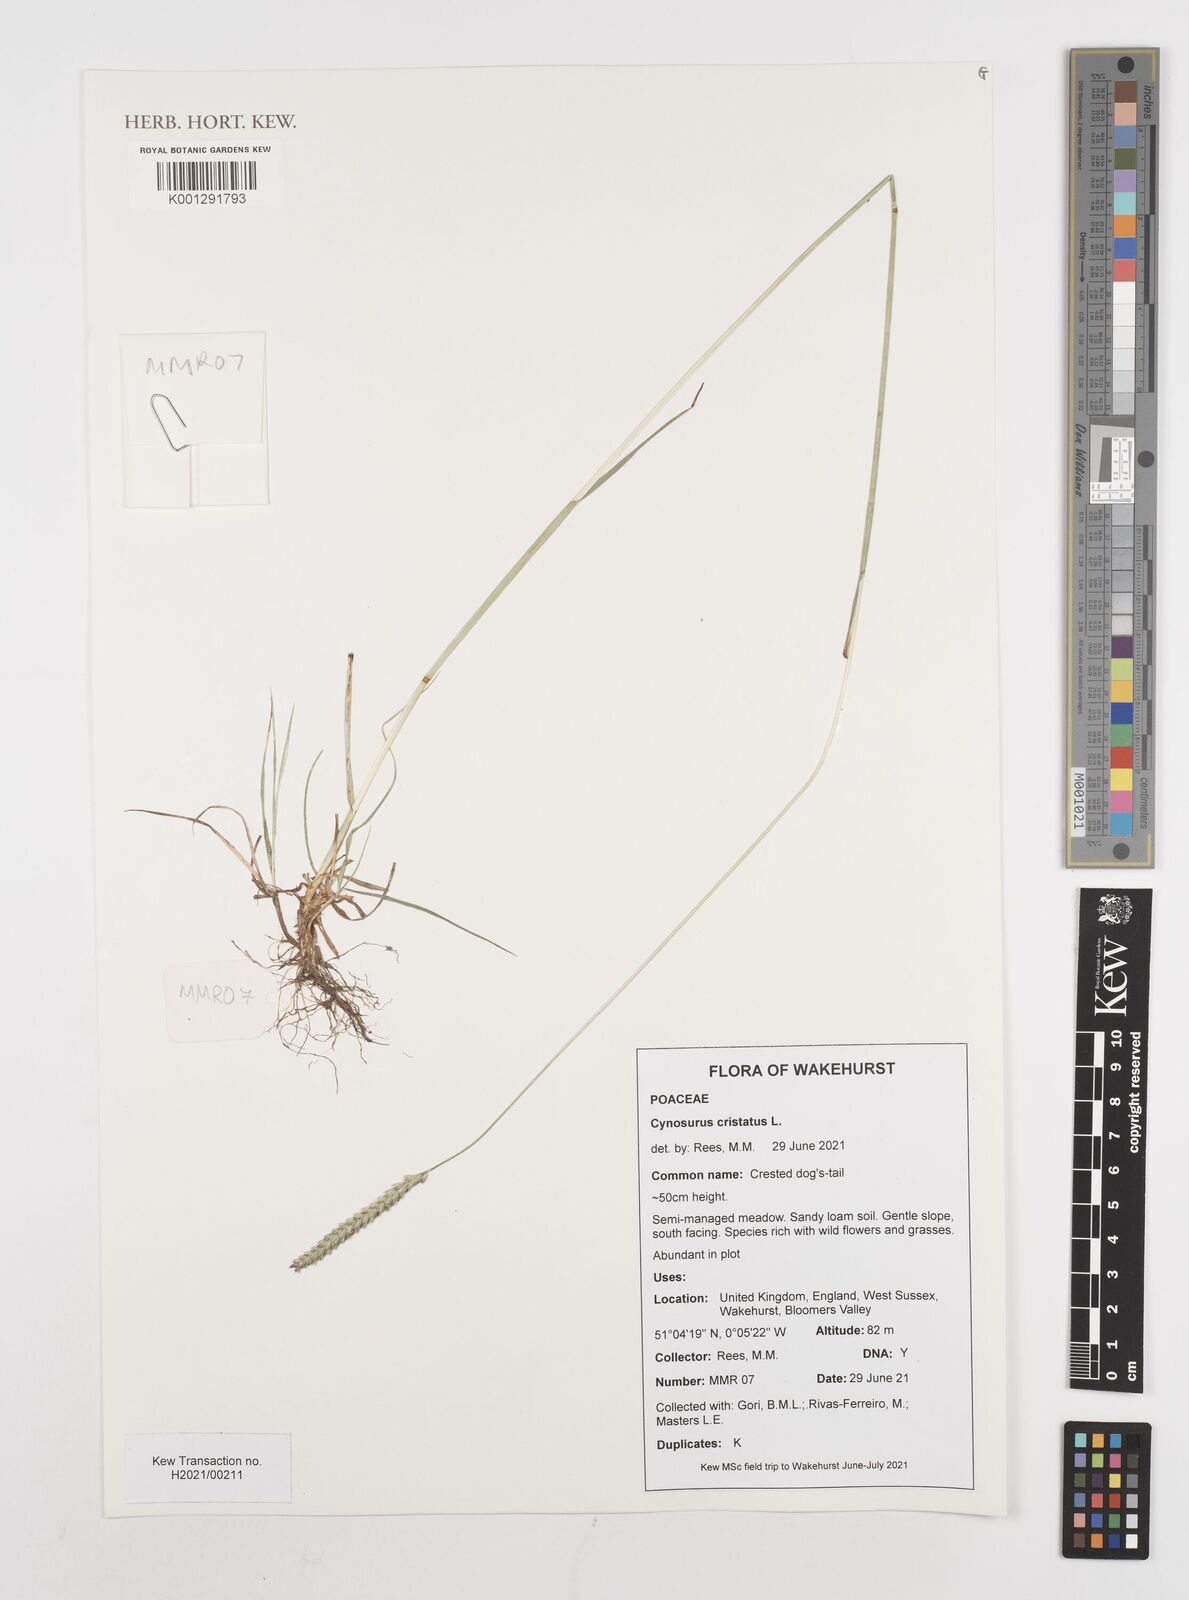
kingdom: Plantae
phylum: Tracheophyta
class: Liliopsida
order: Poales
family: Poaceae
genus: Cynosurus
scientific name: Cynosurus cristatus
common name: Crested dog's-tail
